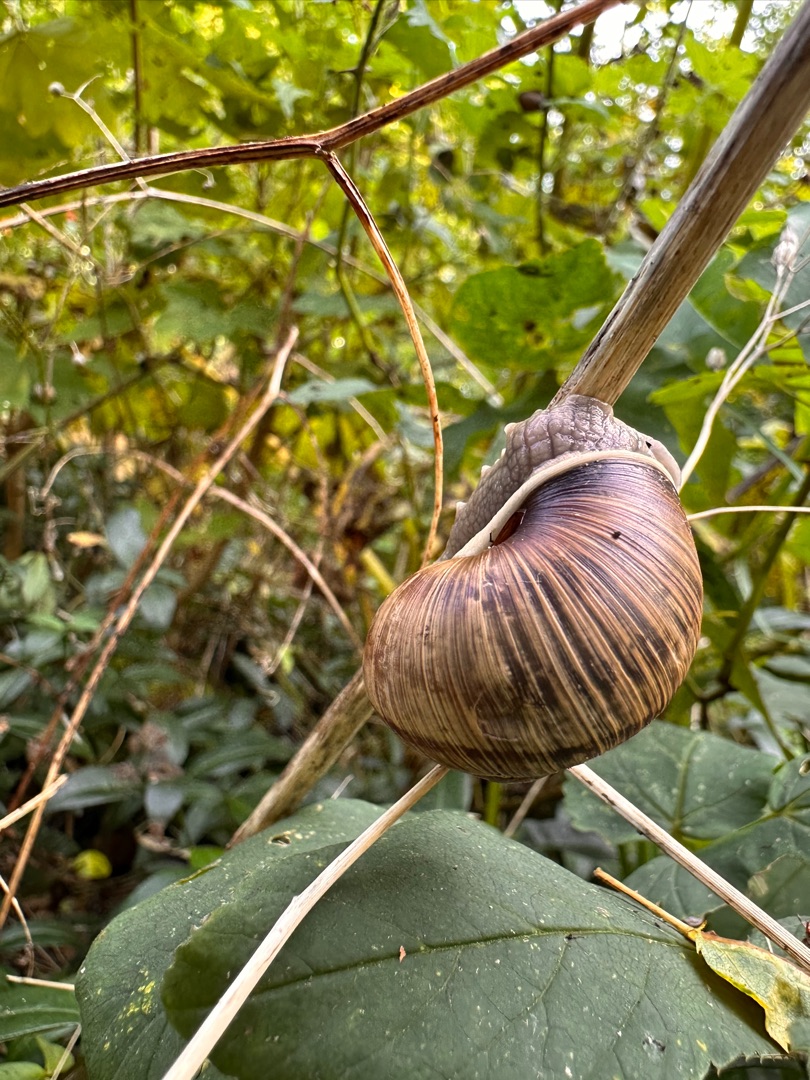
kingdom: Animalia
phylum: Mollusca
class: Gastropoda
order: Stylommatophora
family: Helicidae
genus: Helix
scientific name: Helix pomatia
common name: Vinbjergsnegl
